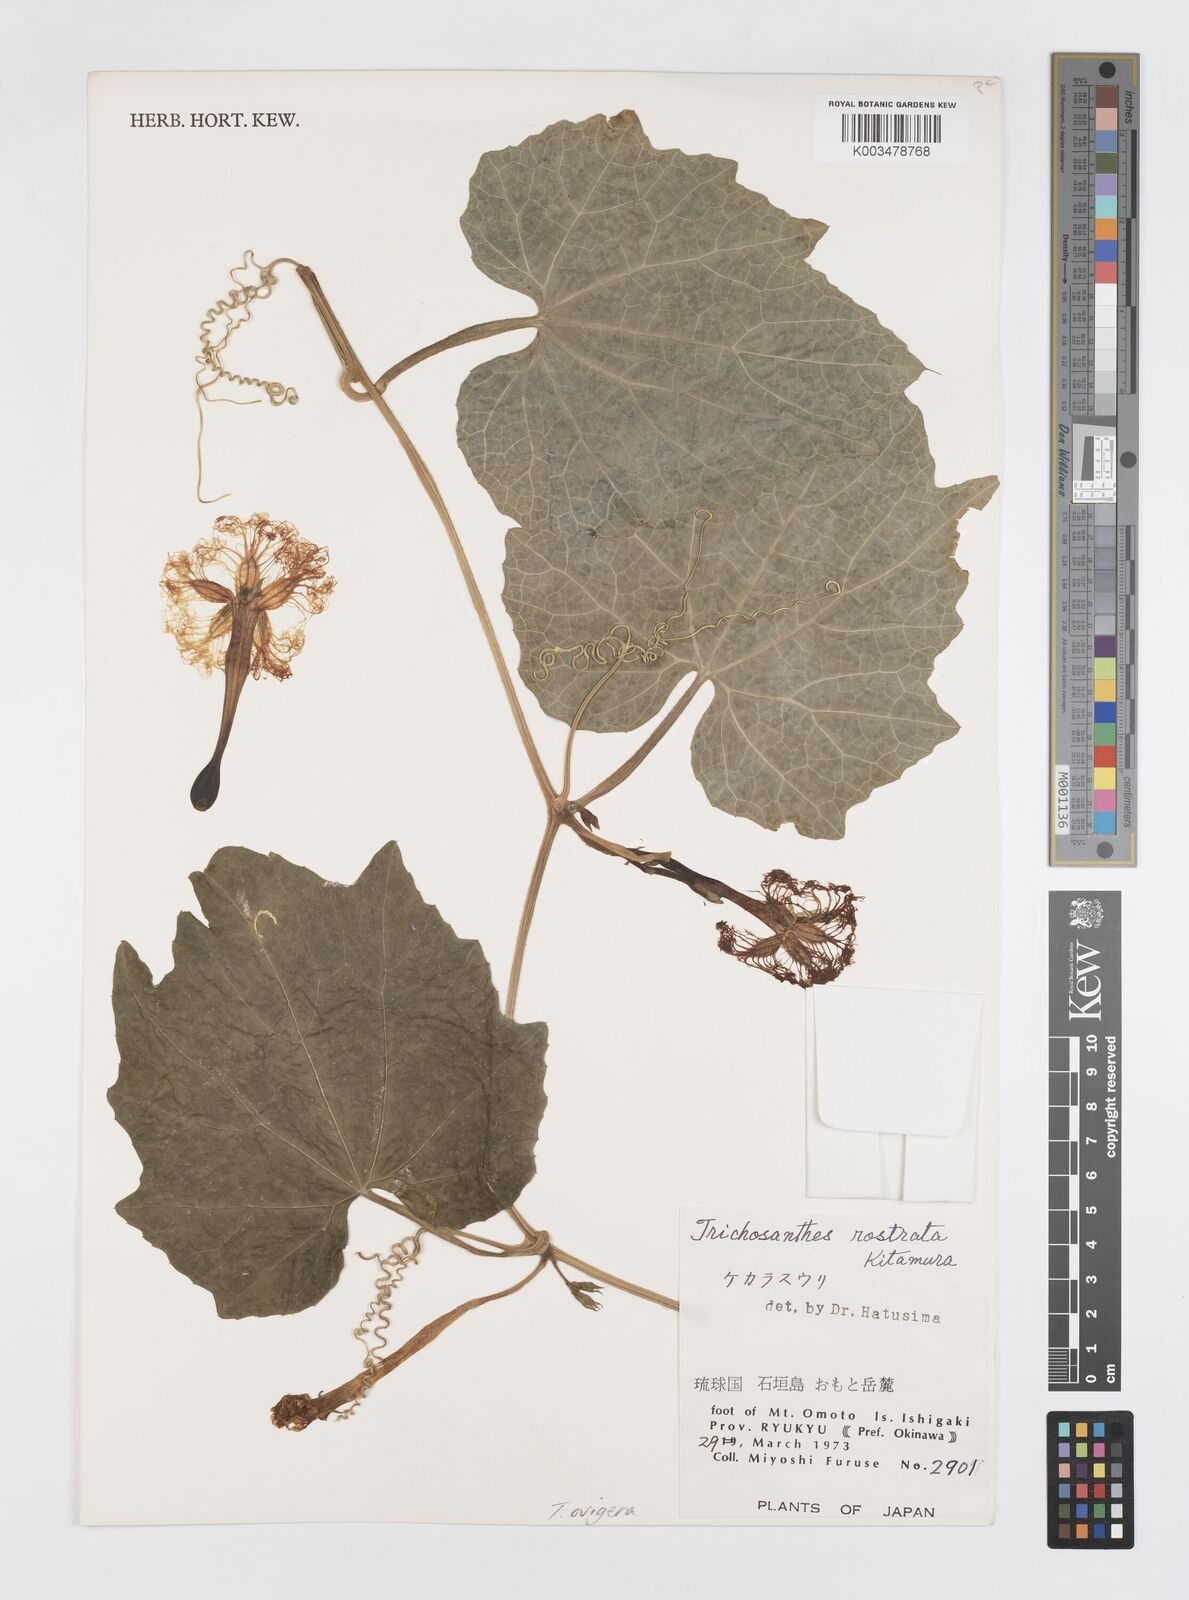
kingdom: Plantae
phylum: Tracheophyta
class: Magnoliopsida
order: Cucurbitales
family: Cucurbitaceae
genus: Trichosanthes
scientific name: Trichosanthes ovigera
